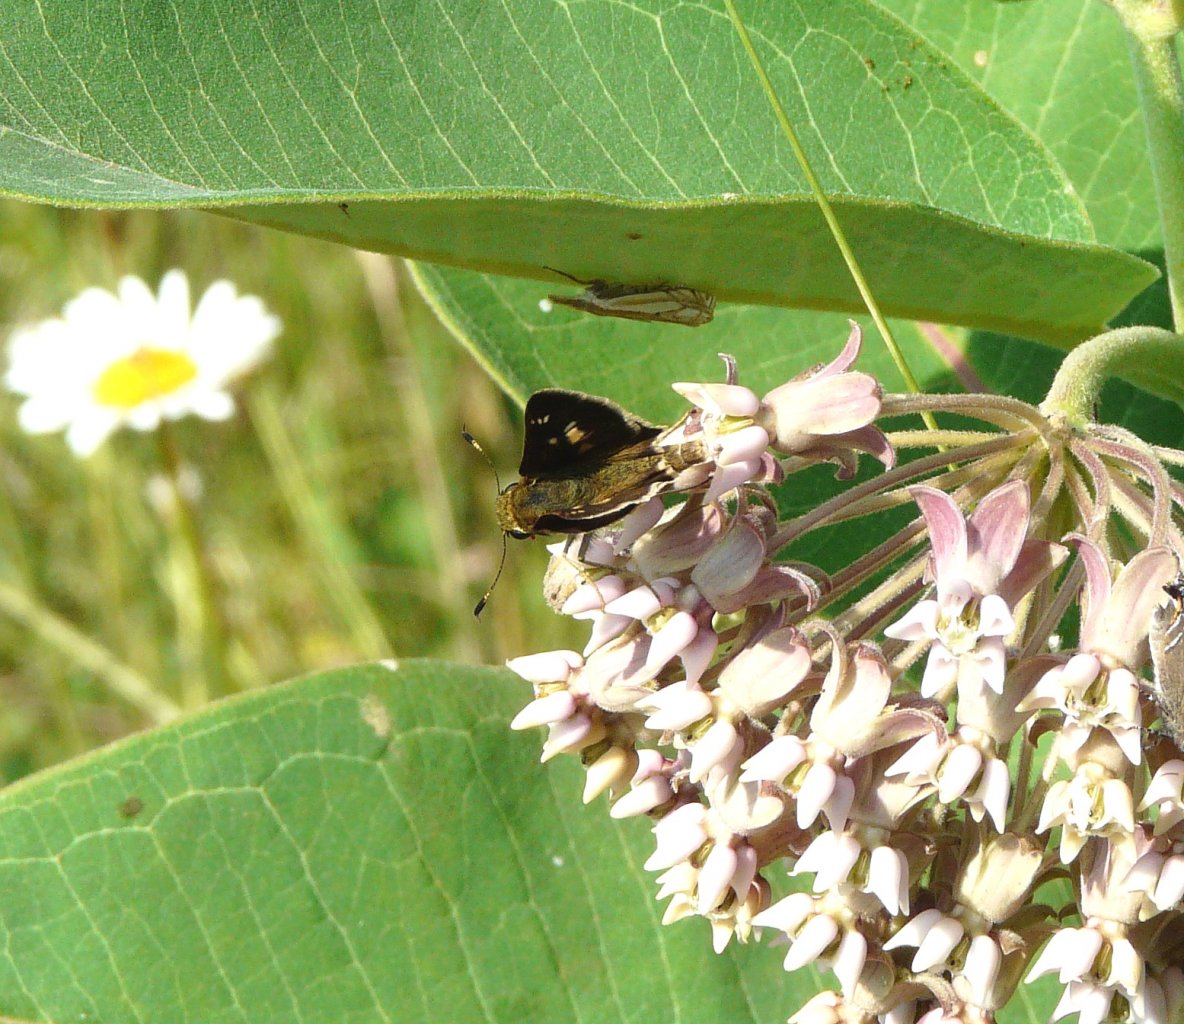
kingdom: Animalia
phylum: Arthropoda
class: Insecta
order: Lepidoptera
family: Hesperiidae
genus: Vernia
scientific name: Vernia verna
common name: Little Glassywing
